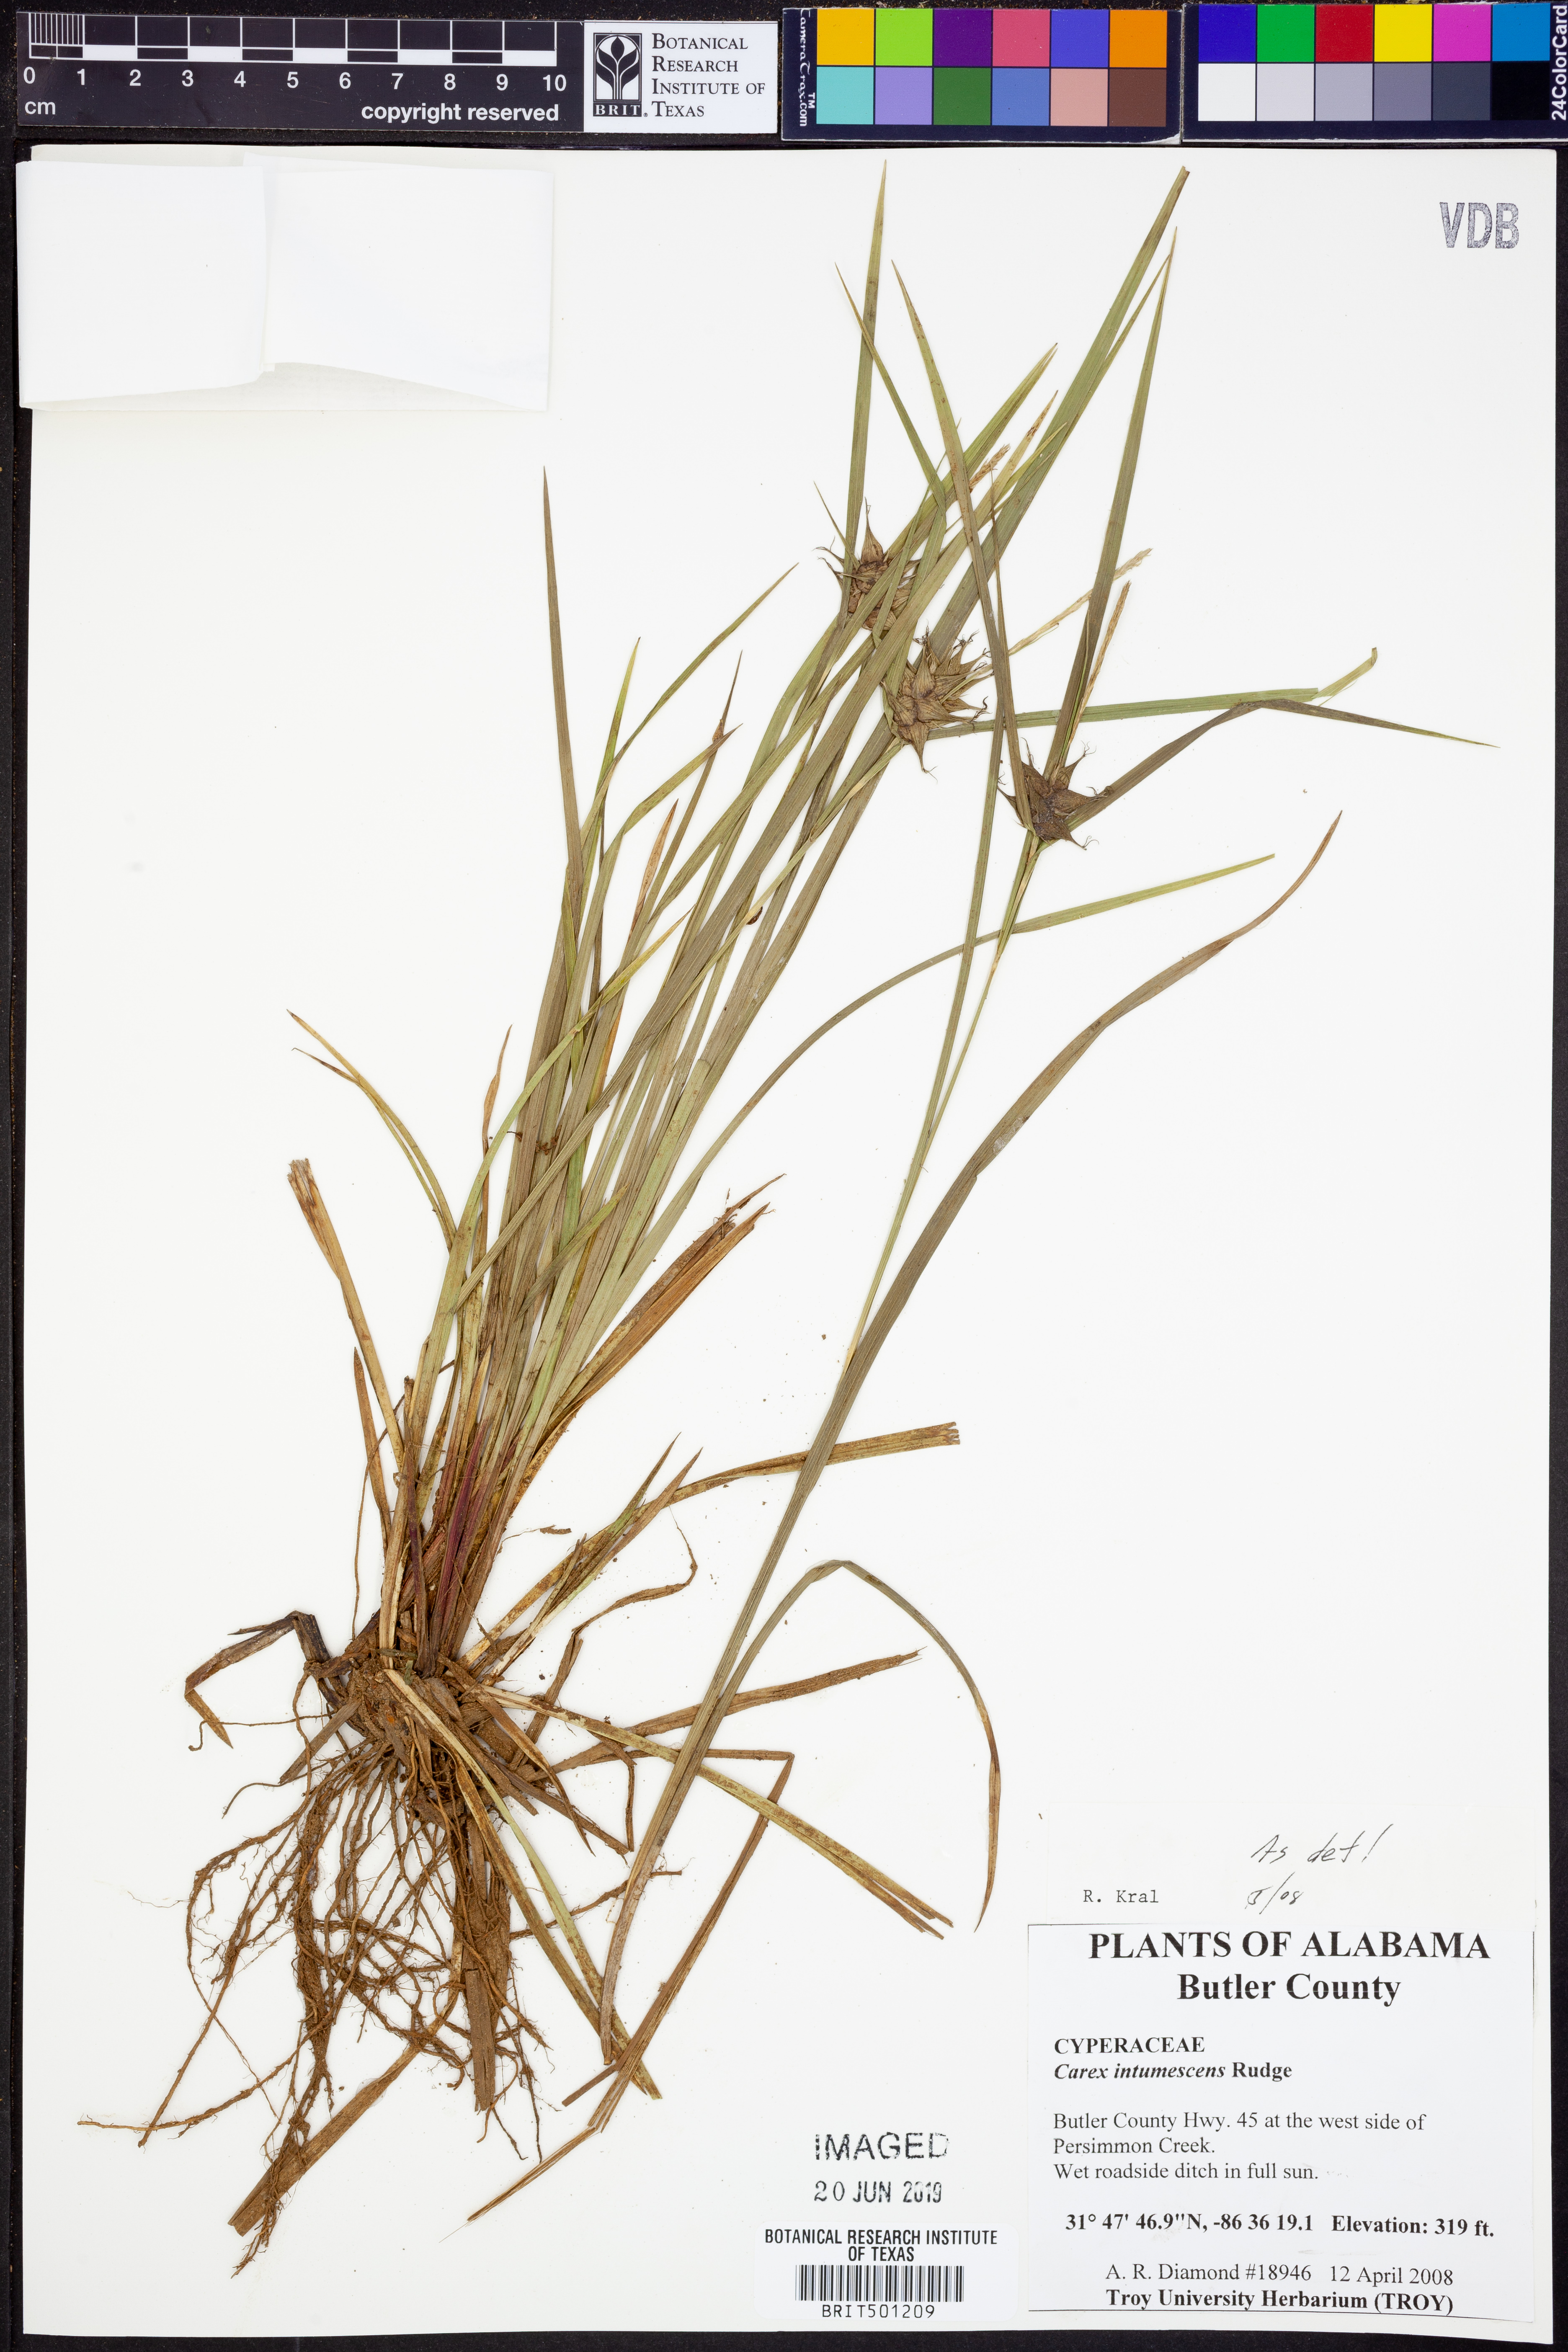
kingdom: Plantae
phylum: Tracheophyta
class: Liliopsida
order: Poales
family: Cyperaceae
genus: Carex
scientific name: Carex intumescens
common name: Greater bladder sedge
